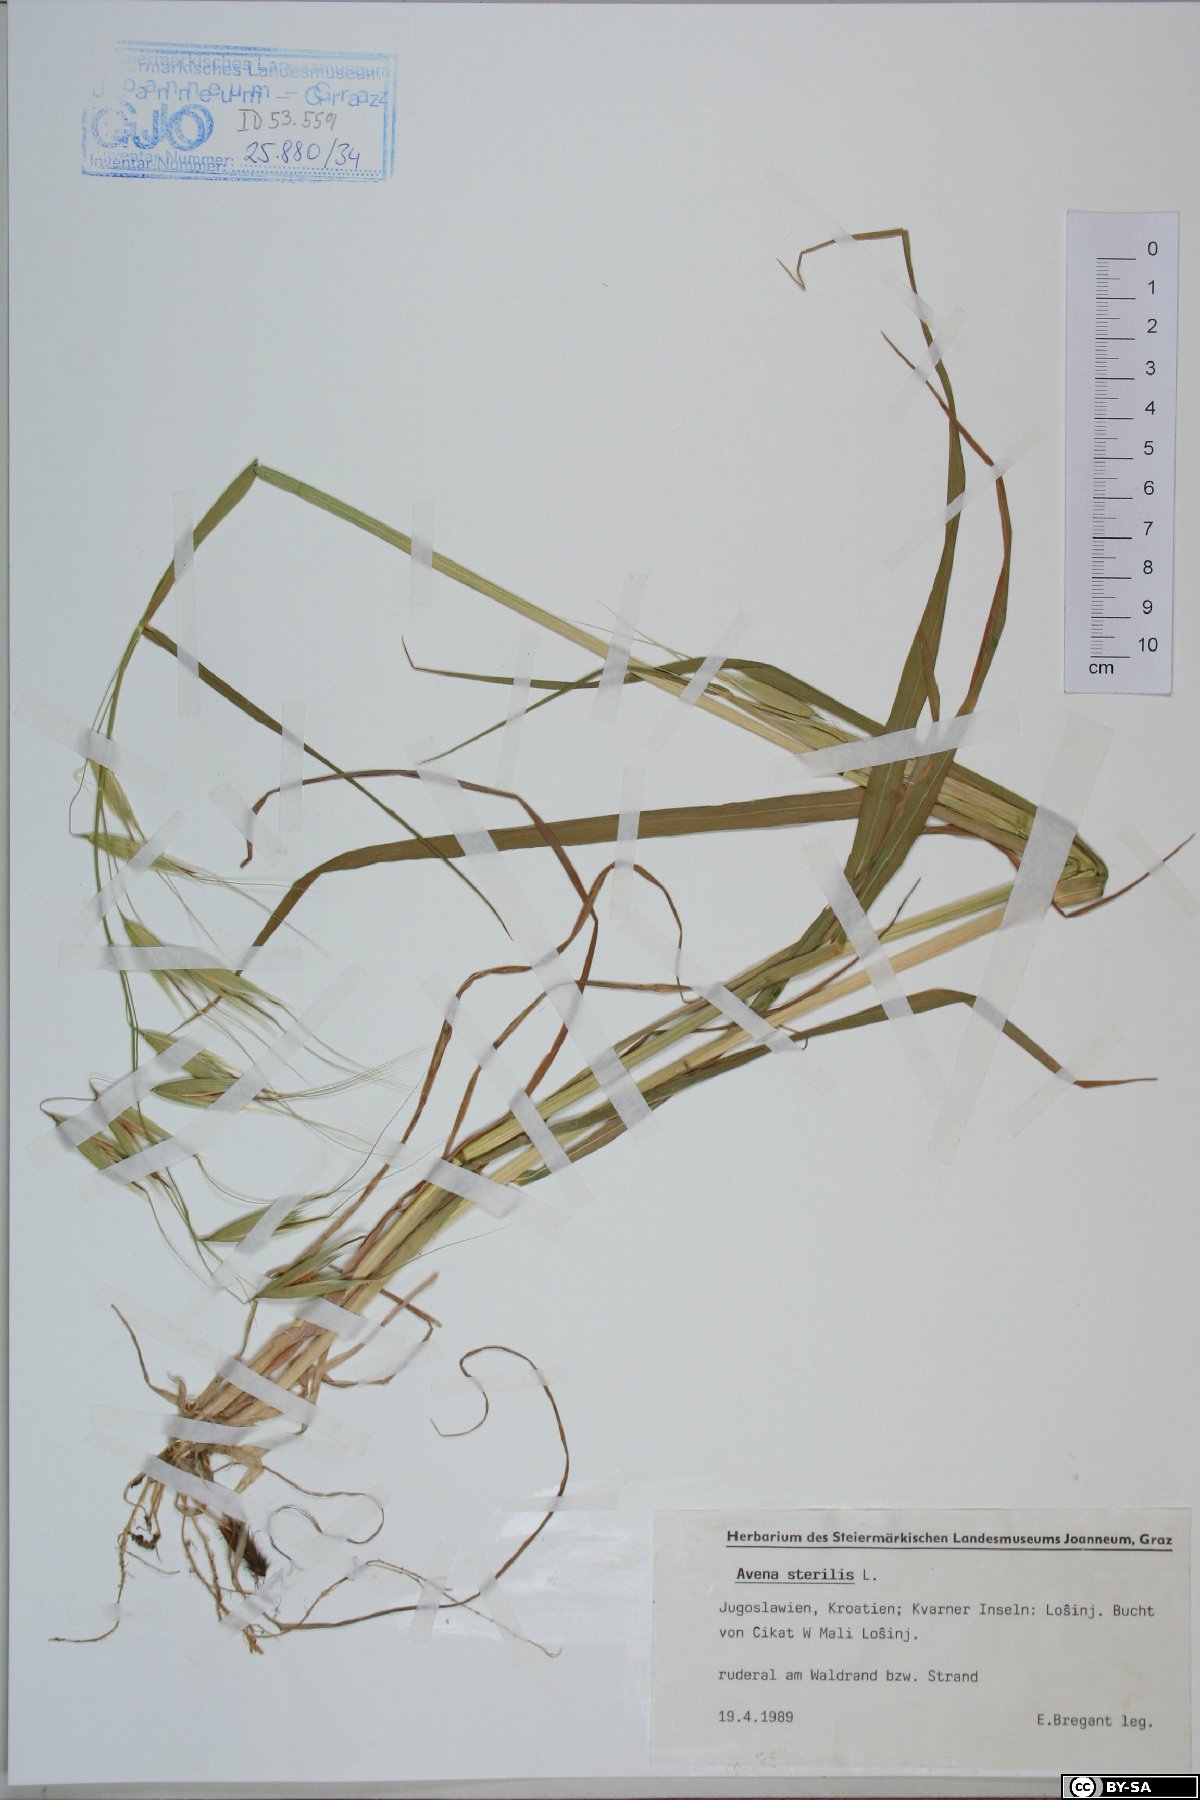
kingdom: Plantae
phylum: Tracheophyta
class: Liliopsida
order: Poales
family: Poaceae
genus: Avena
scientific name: Avena sterilis
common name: Animated oat
